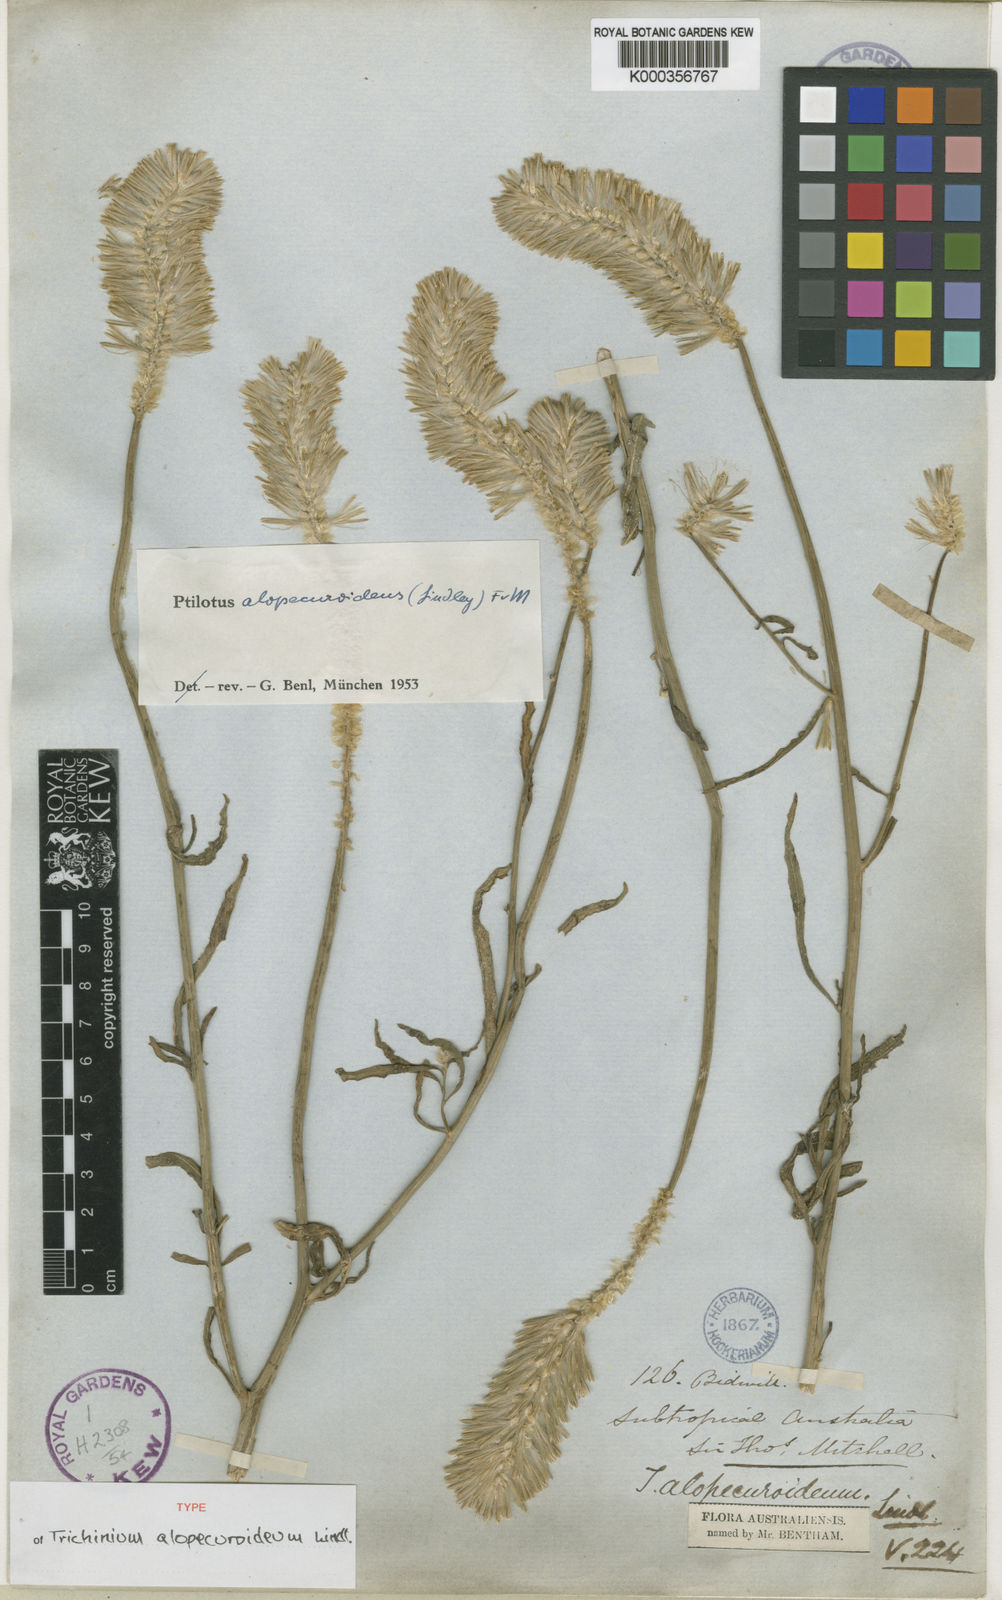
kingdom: Plantae
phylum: Tracheophyta
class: Magnoliopsida
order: Caryophyllales
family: Amaranthaceae
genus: Ptilotus
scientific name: Ptilotus polystachyus
